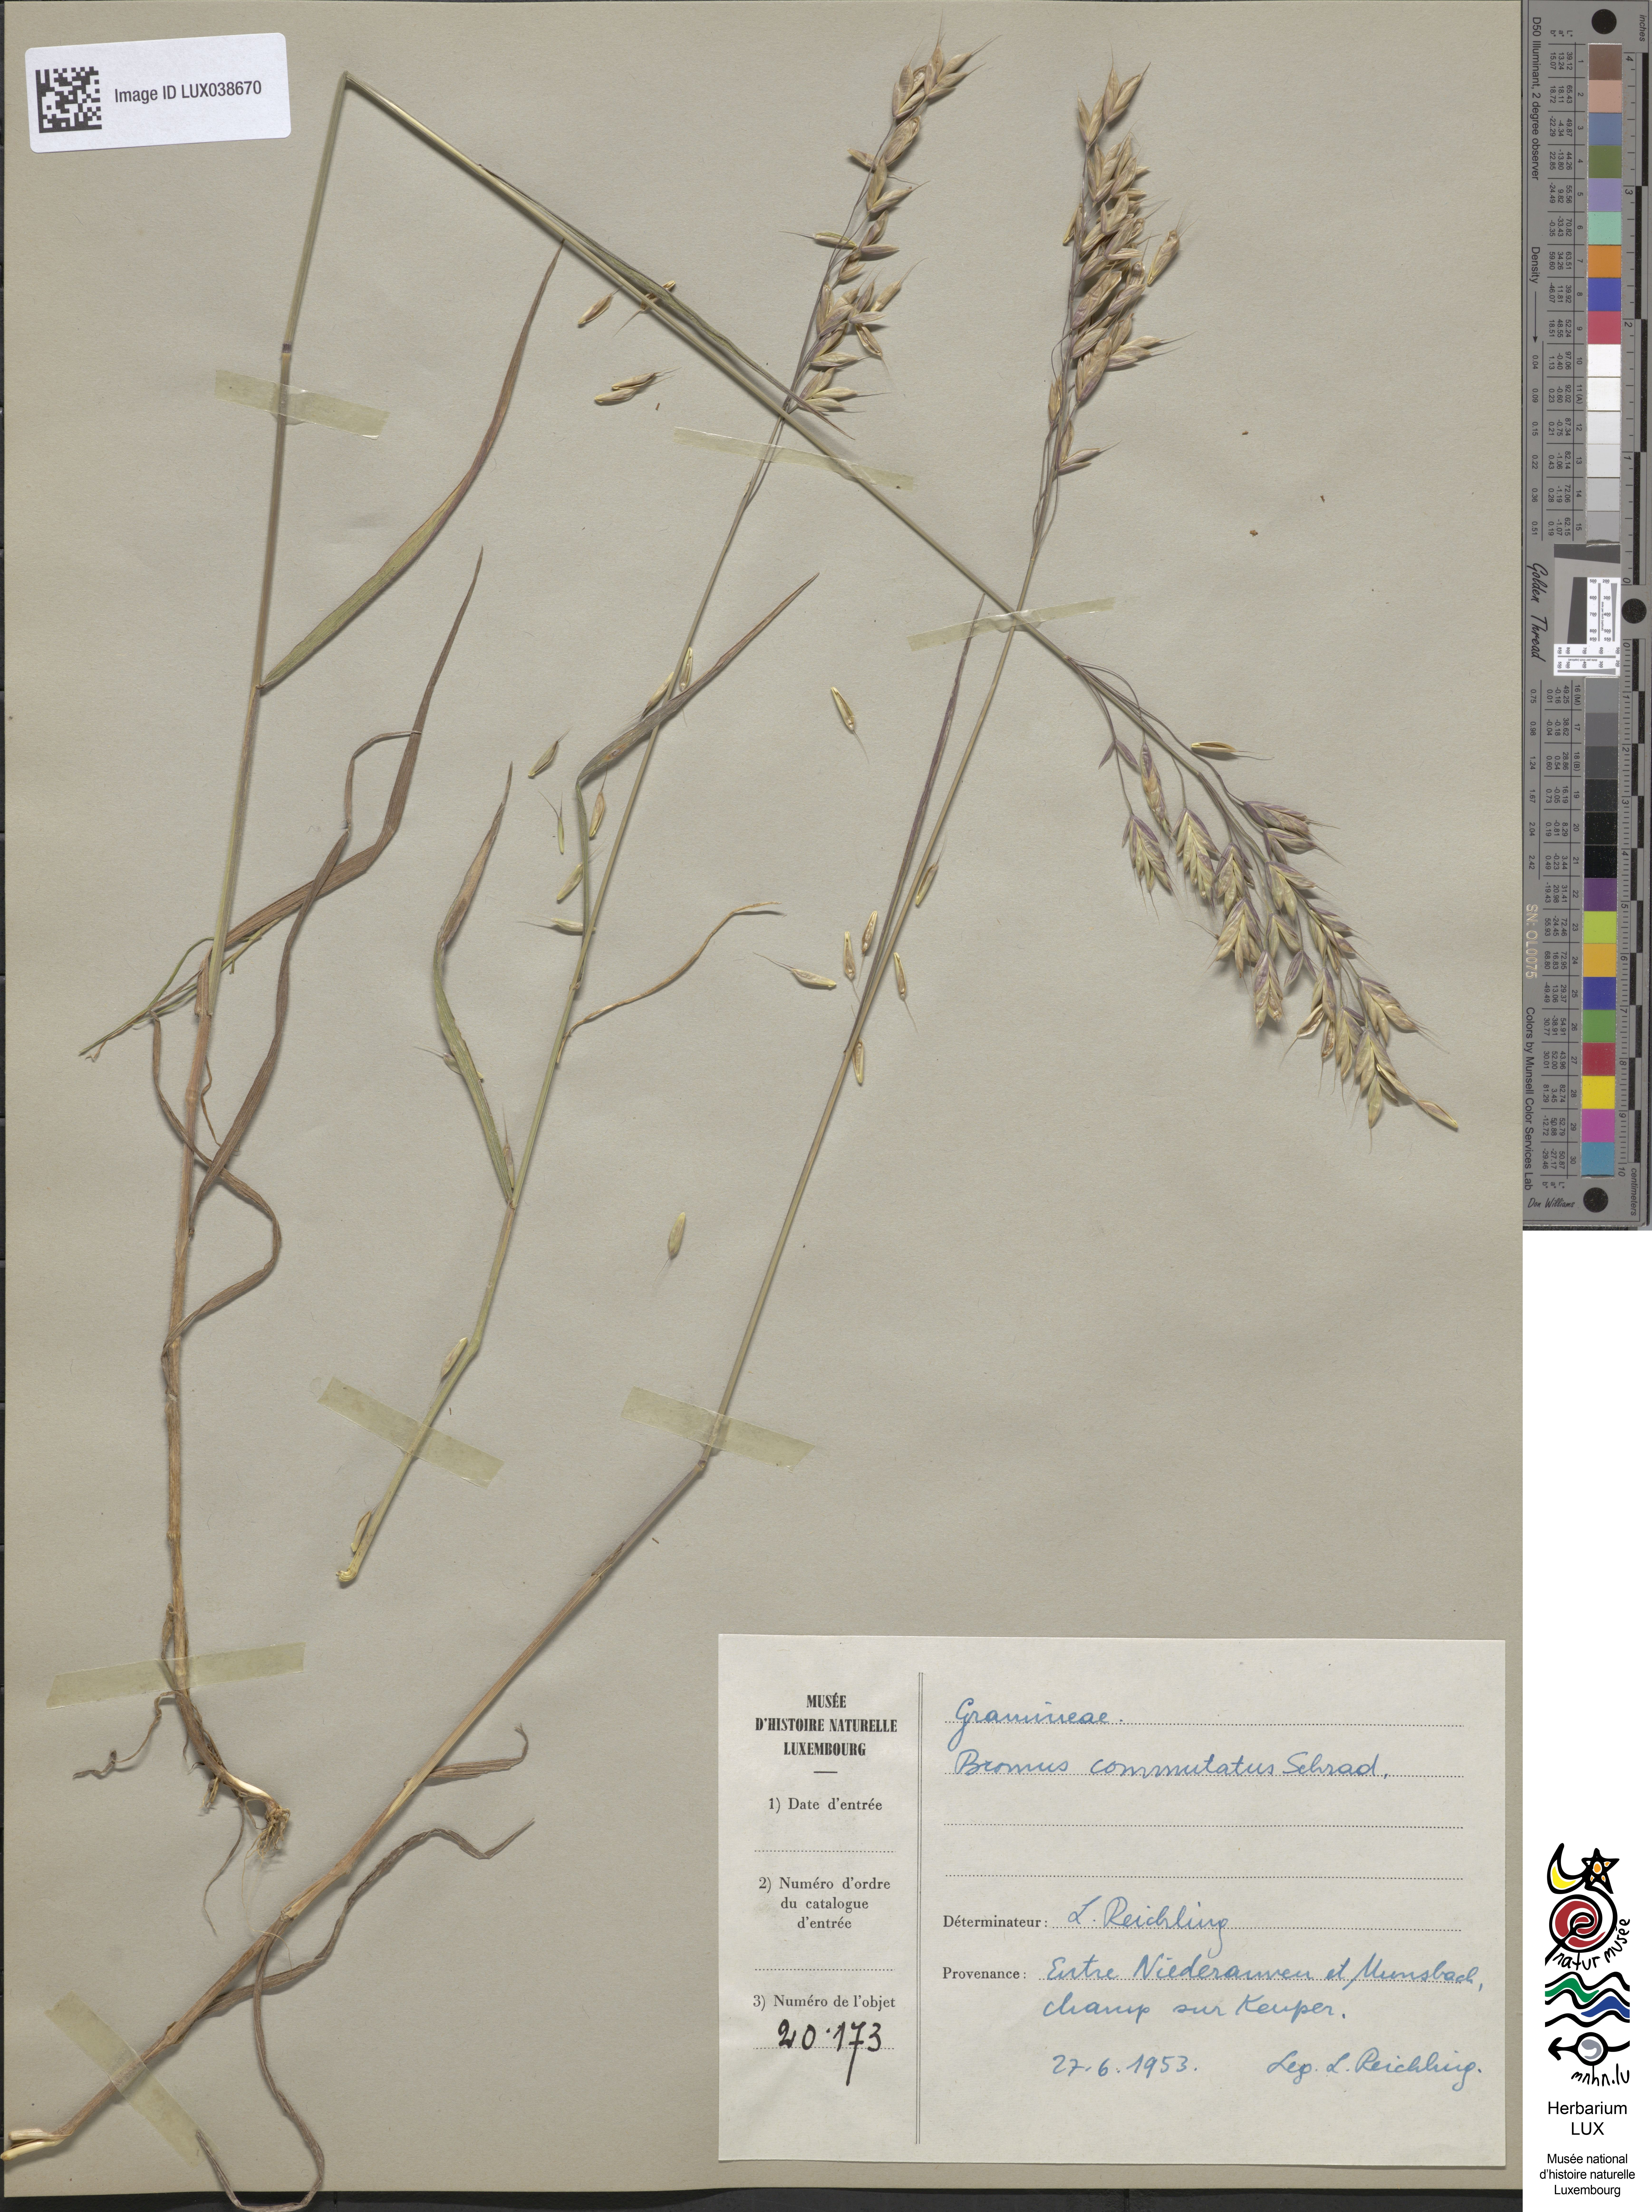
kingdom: Plantae
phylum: Tracheophyta
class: Liliopsida
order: Poales
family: Poaceae
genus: Bromus
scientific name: Bromus commutatus
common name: Meadow brome
